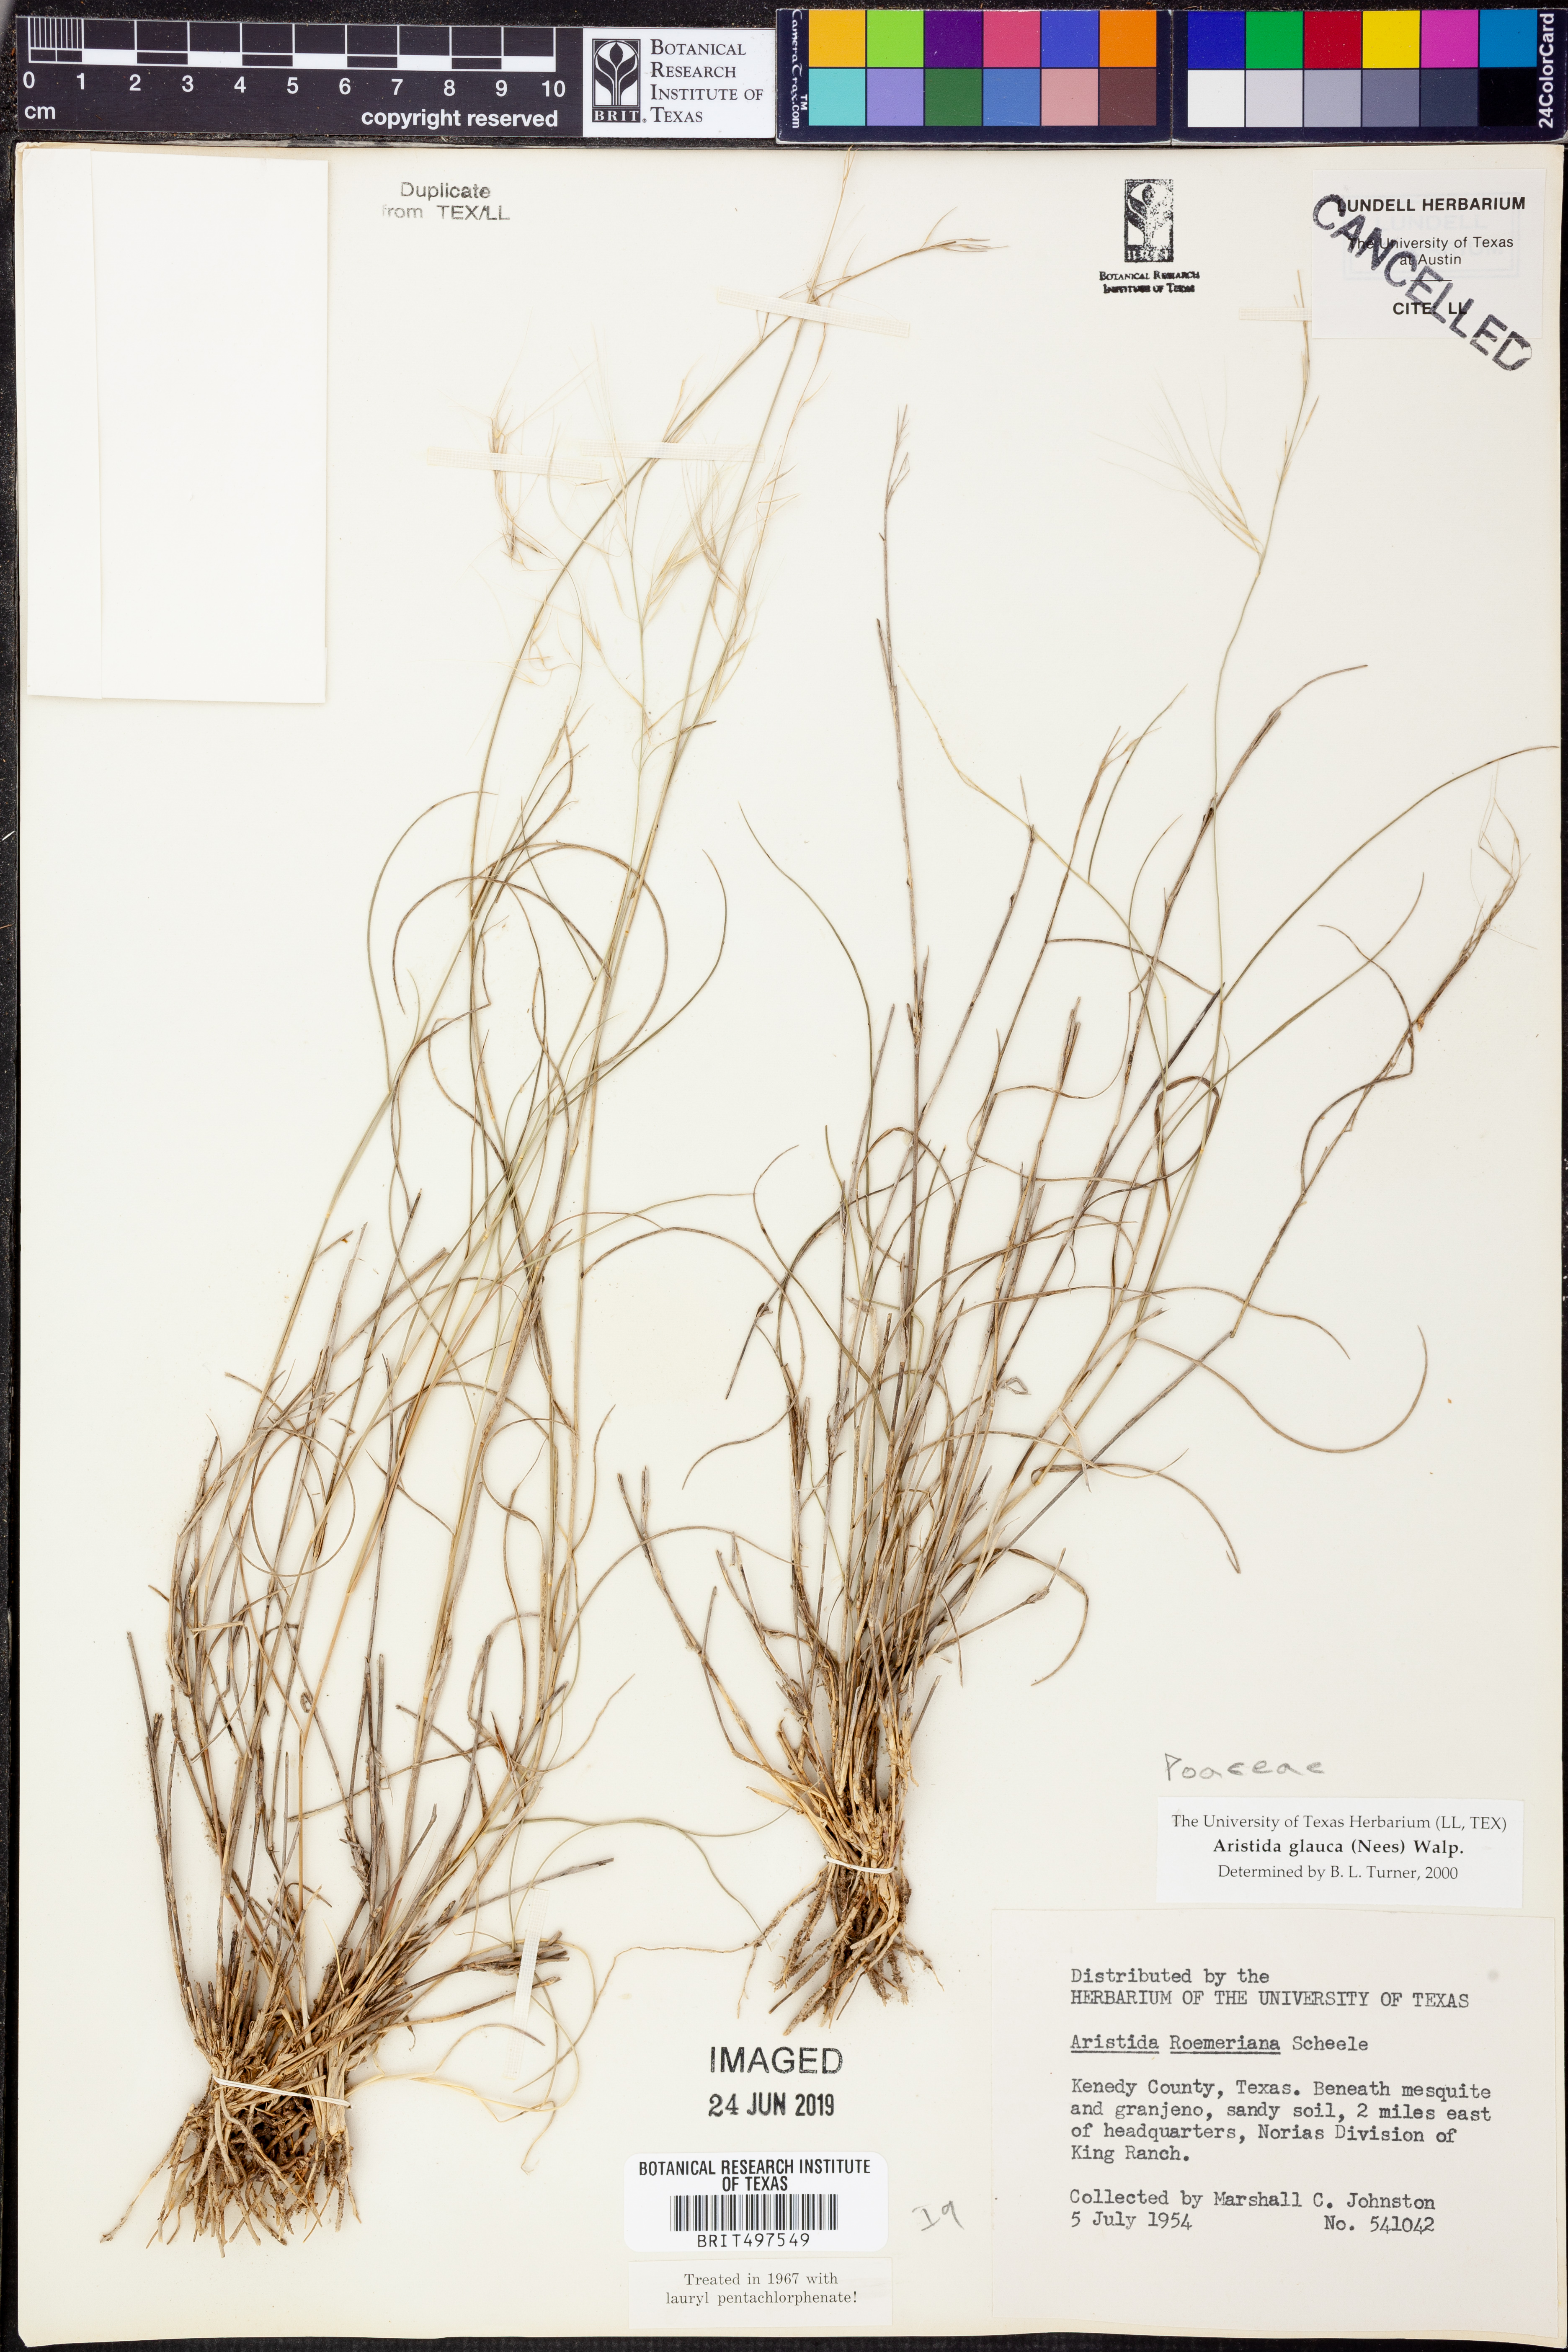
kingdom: Plantae
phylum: Tracheophyta
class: Liliopsida
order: Poales
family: Poaceae
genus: Aristida
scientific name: Aristida purpurea
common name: Purple threeawn
